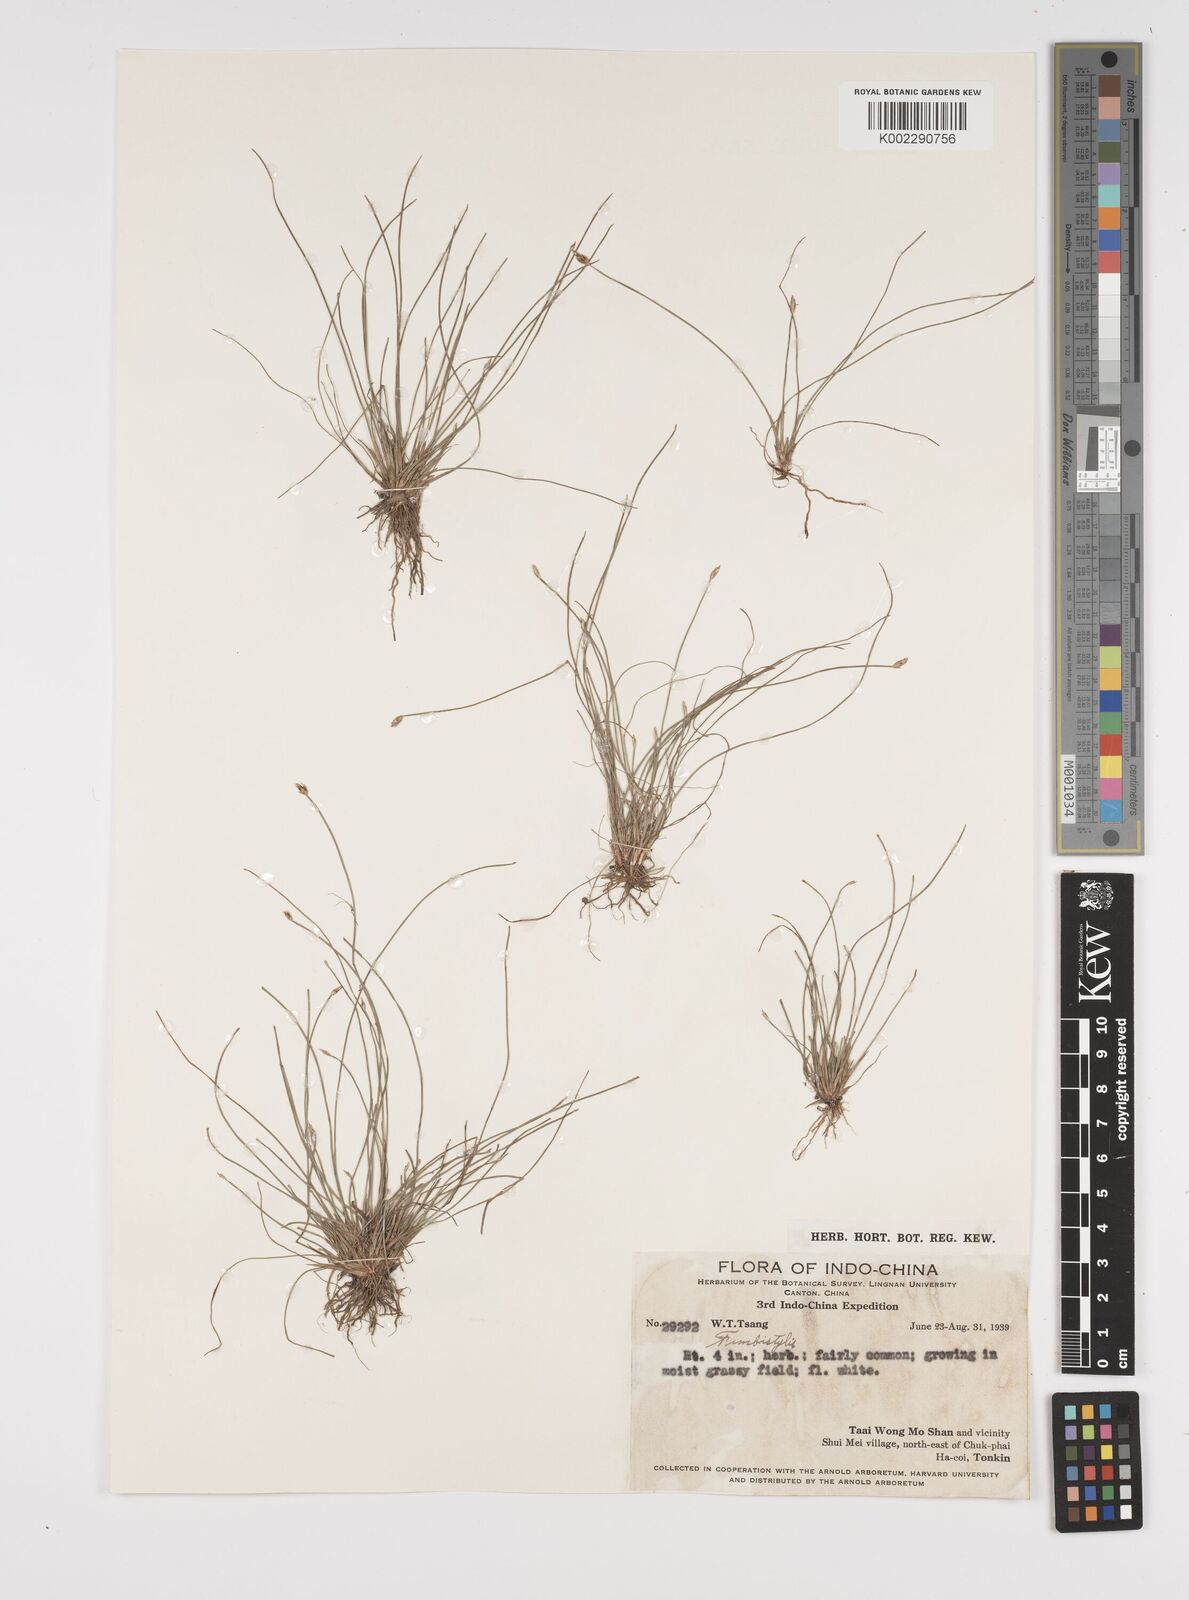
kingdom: Plantae
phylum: Tracheophyta
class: Liliopsida
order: Poales
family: Cyperaceae
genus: Fimbristylis
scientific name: Fimbristylis
